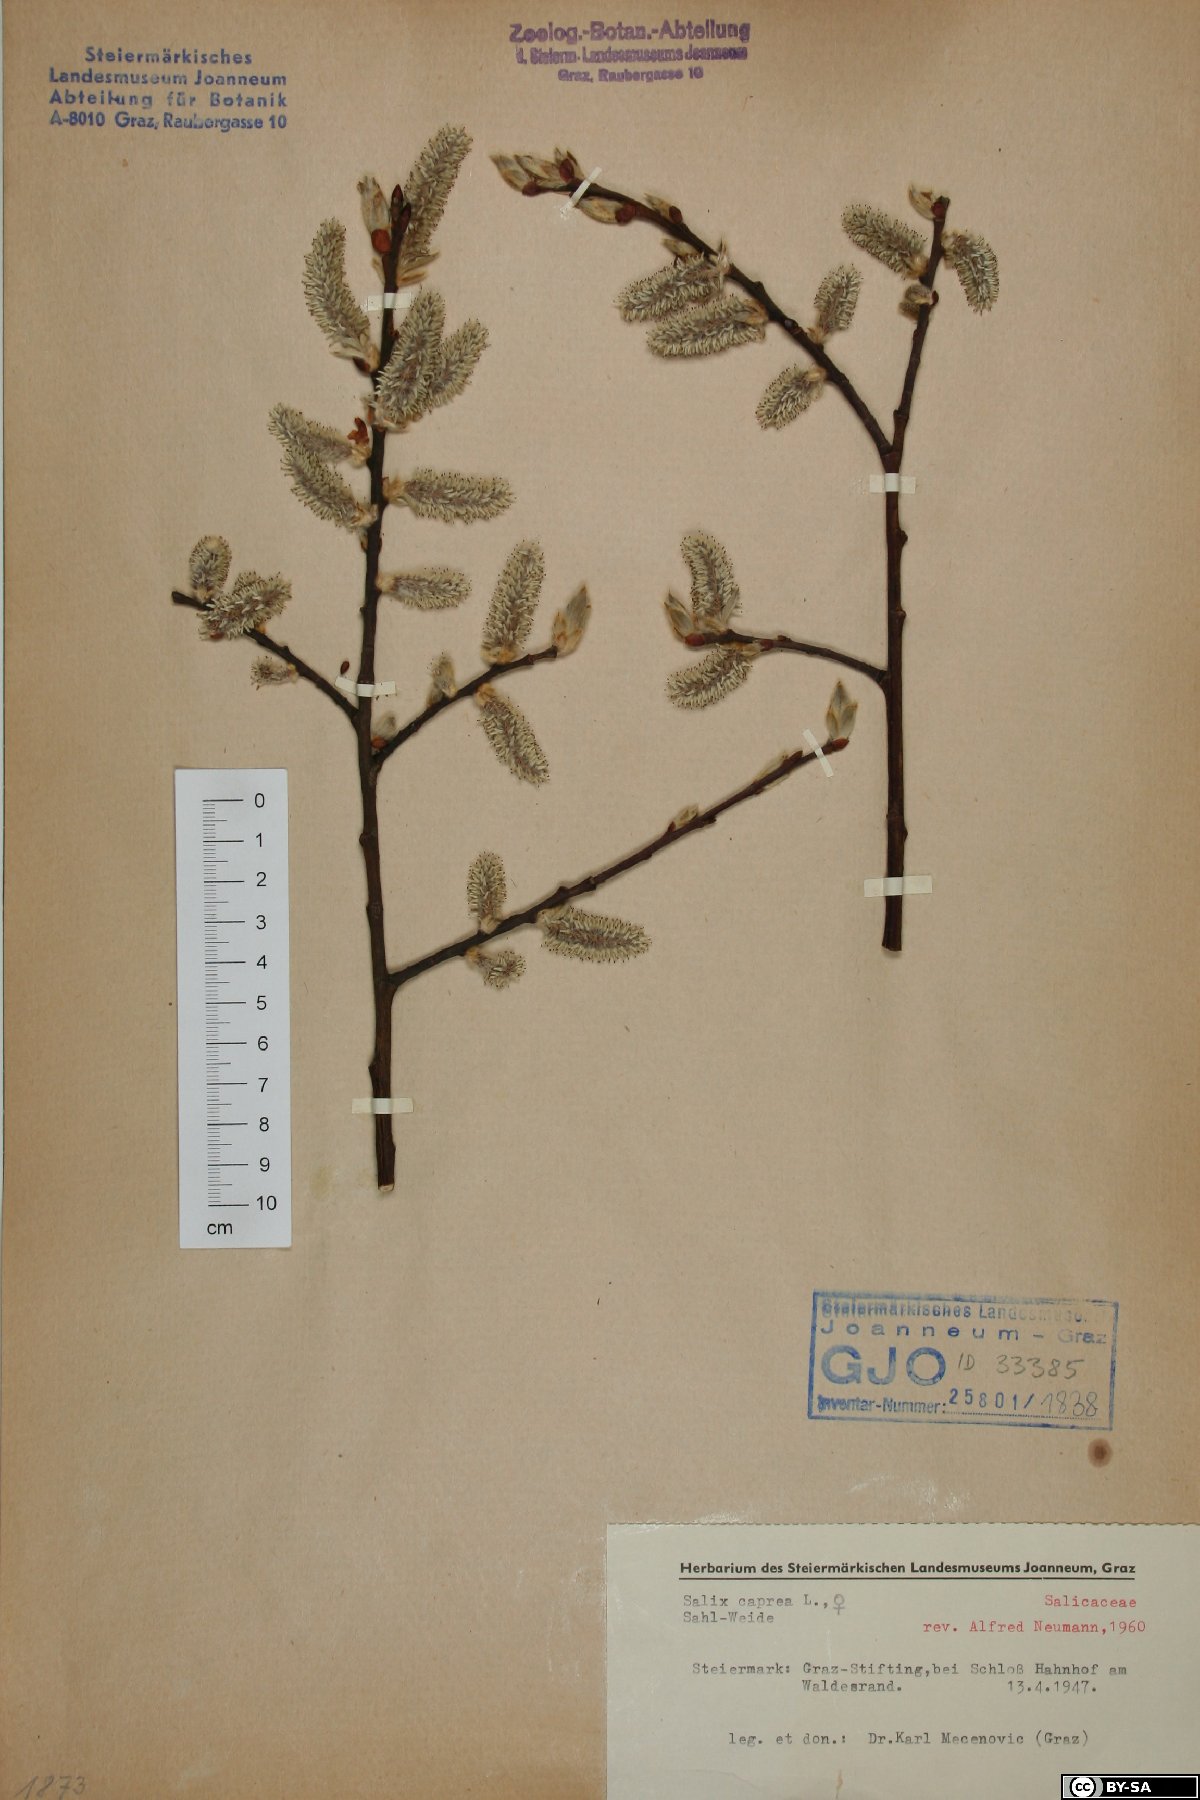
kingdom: Plantae
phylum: Tracheophyta
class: Magnoliopsida
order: Malpighiales
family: Salicaceae
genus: Salix
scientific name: Salix caprea
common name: Goat willow
